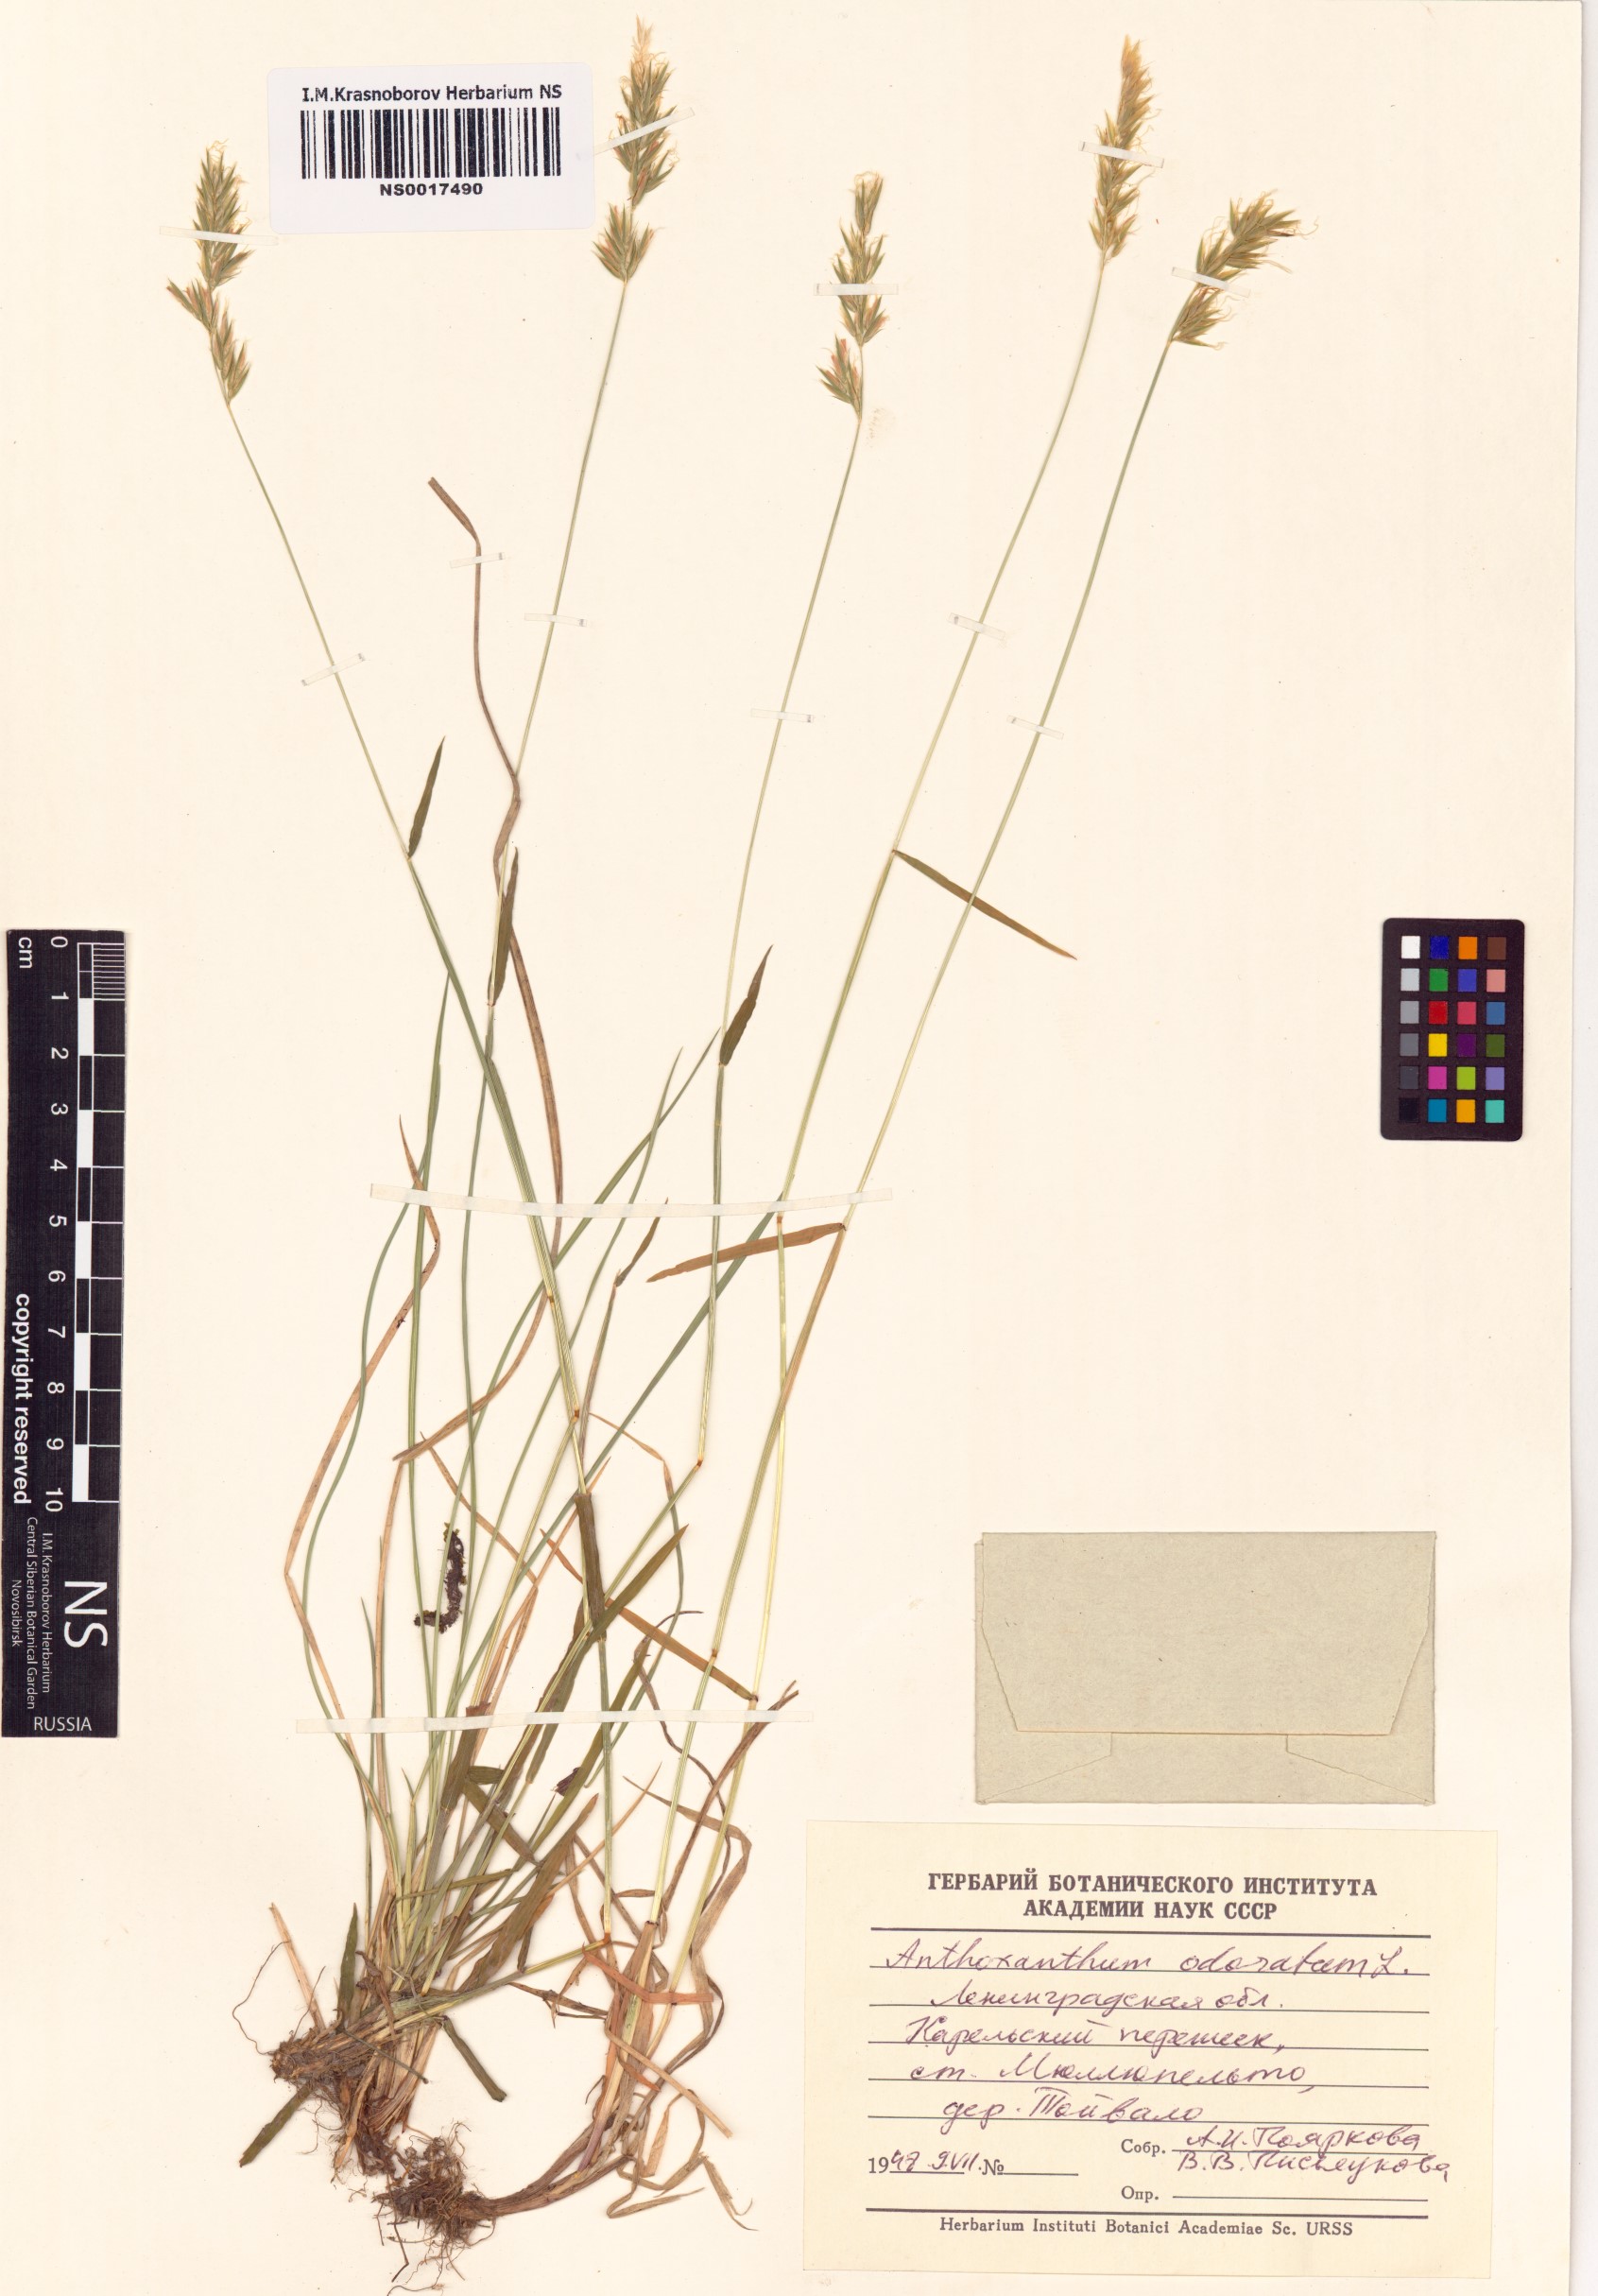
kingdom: Plantae
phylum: Tracheophyta
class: Liliopsida
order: Poales
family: Poaceae
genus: Anthoxanthum
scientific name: Anthoxanthum odoratum
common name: Sweet vernalgrass
